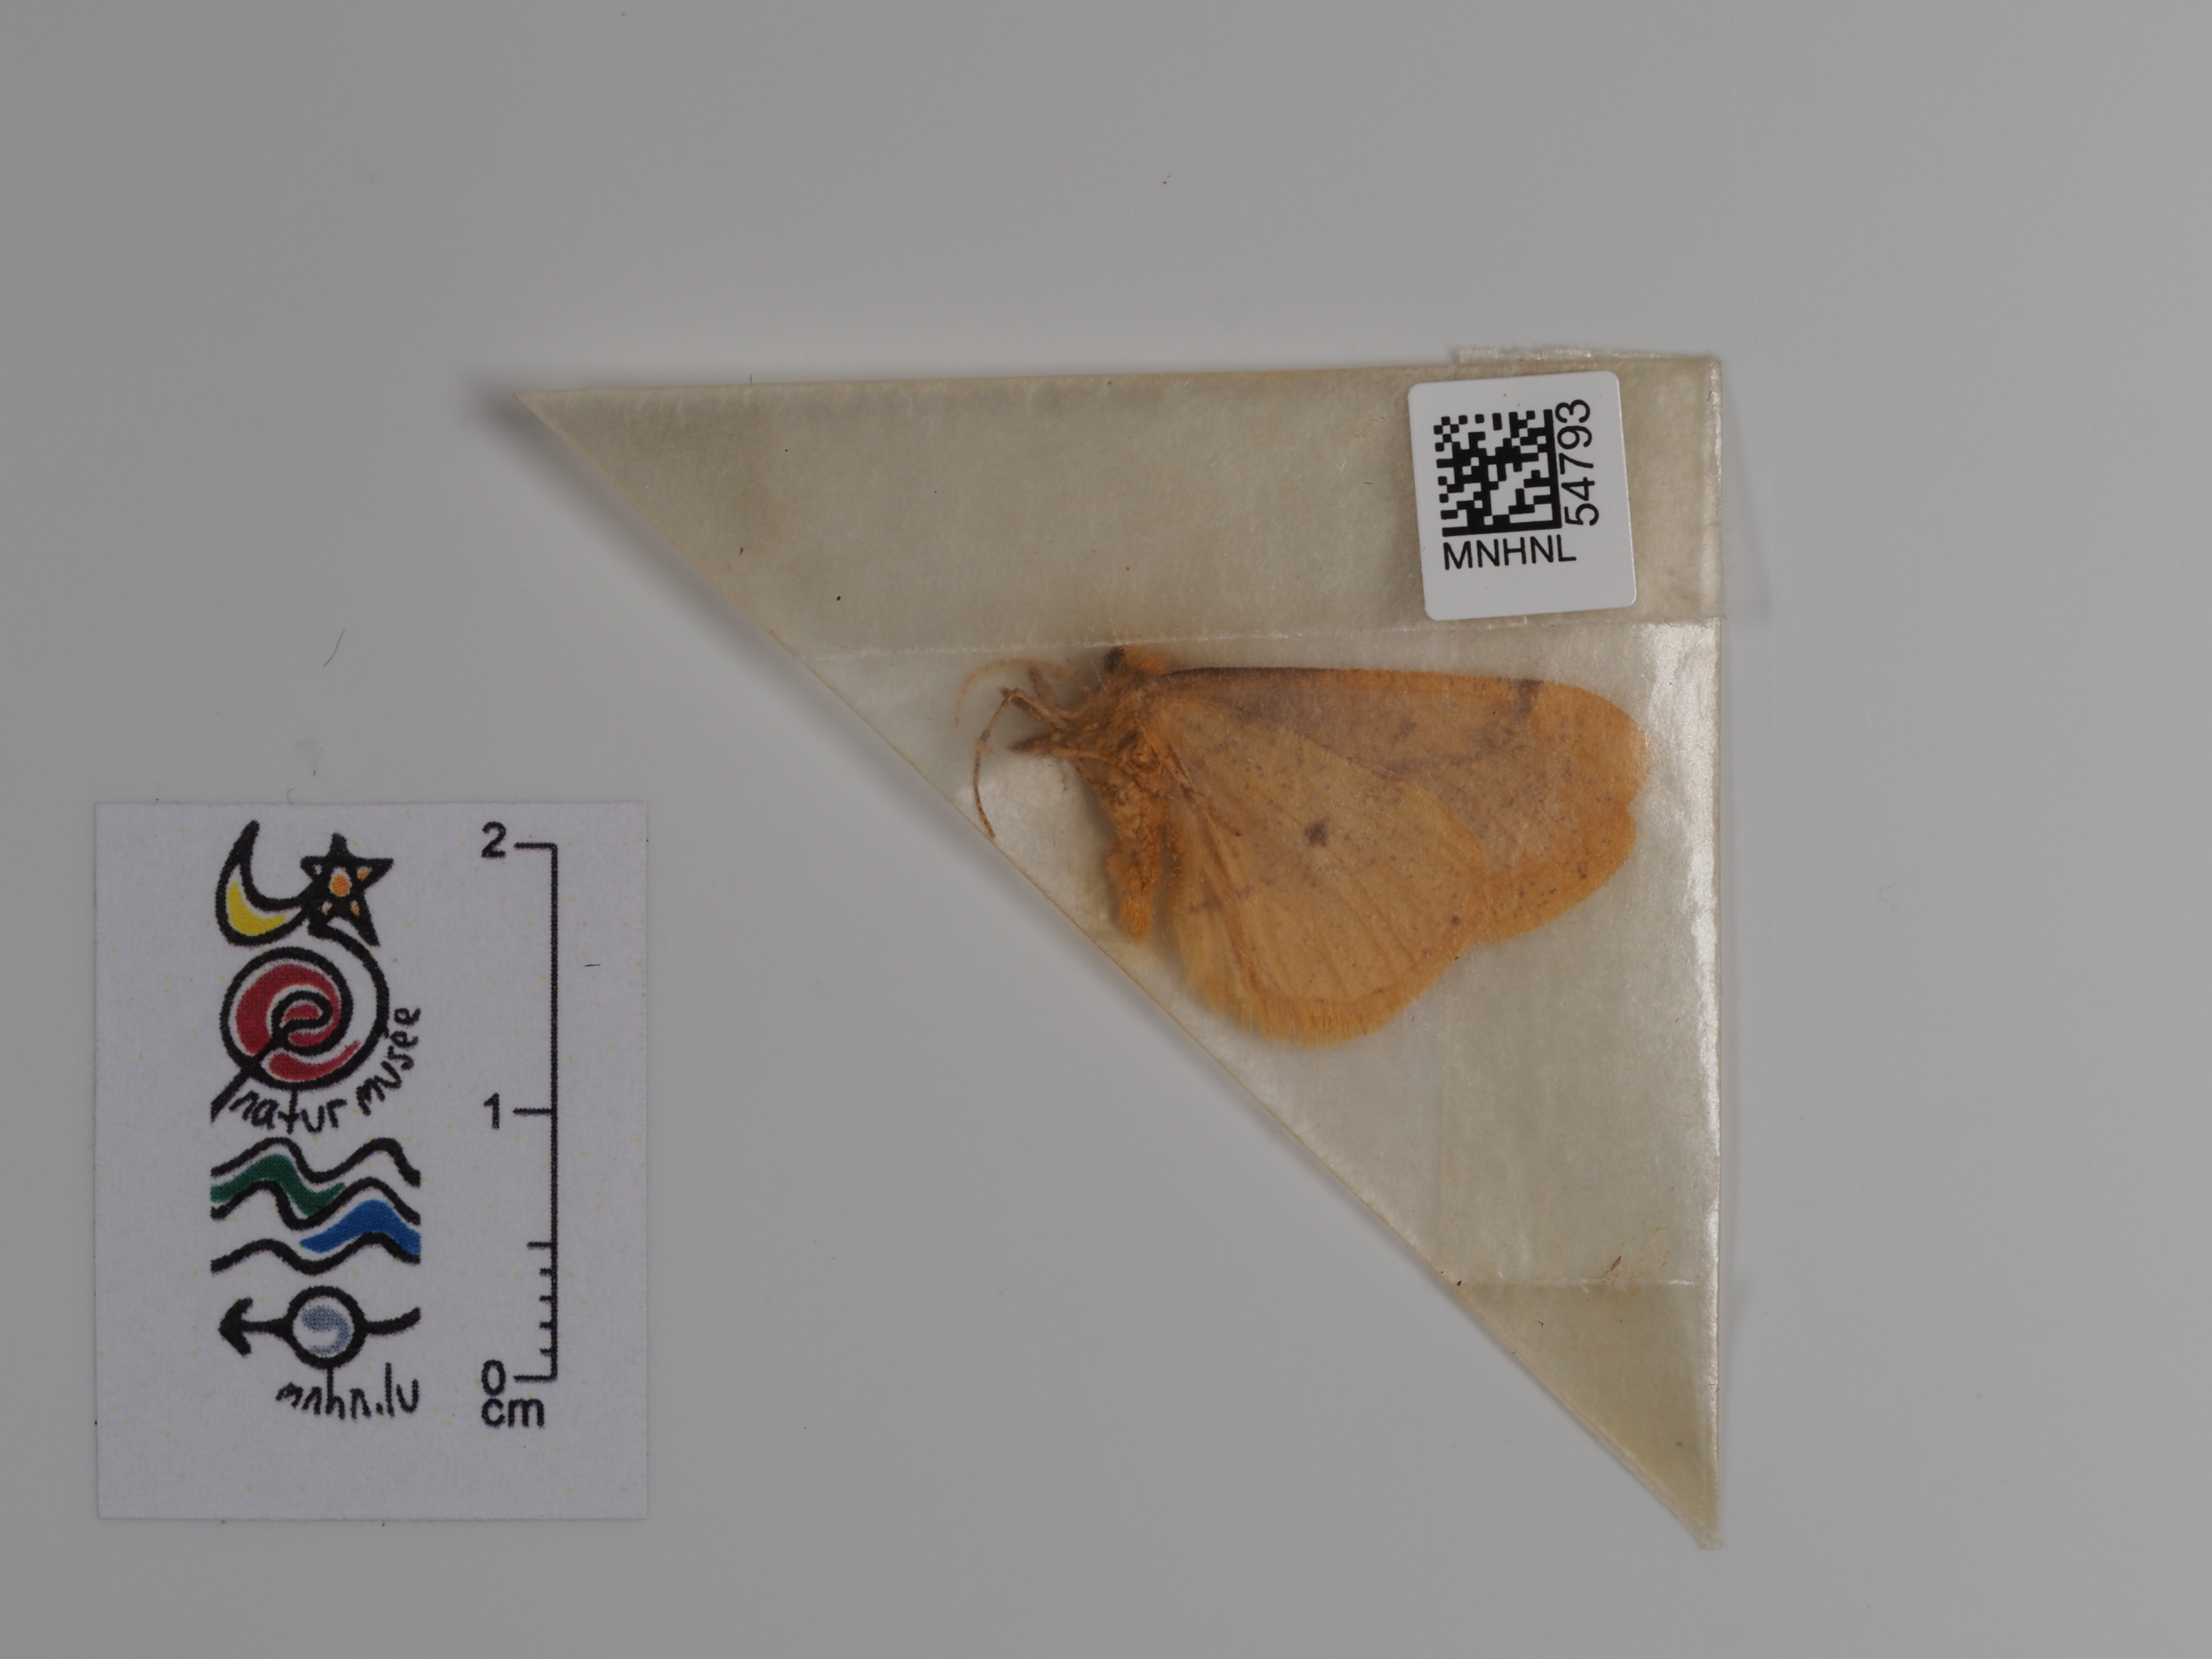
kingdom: Animalia
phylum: Arthropoda
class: Insecta
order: Lepidoptera
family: Geometridae
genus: Agriopis
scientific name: Agriopis aurantiaria
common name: Scarce umber
